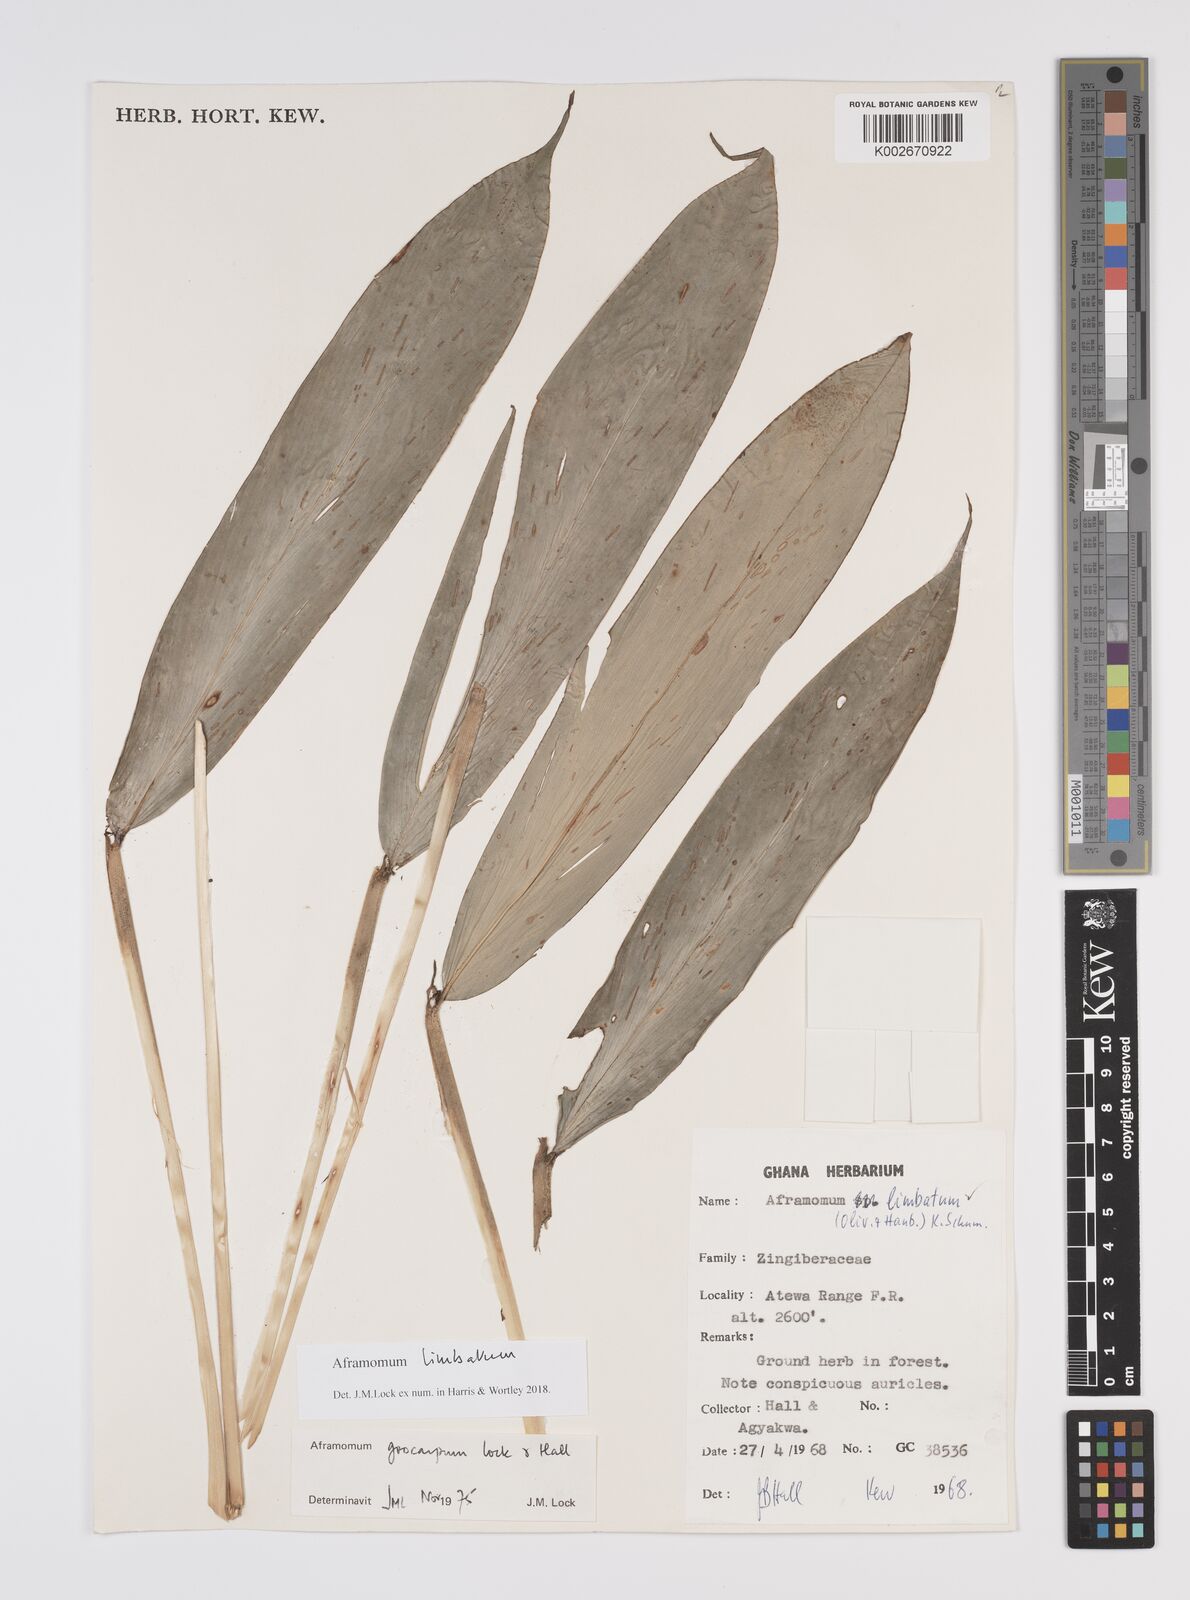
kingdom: Plantae
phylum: Tracheophyta
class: Liliopsida
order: Zingiberales
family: Zingiberaceae
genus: Aframomum
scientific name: Aframomum limbatum
